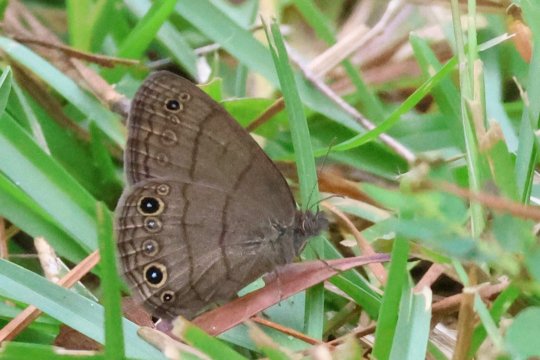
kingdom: Animalia
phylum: Arthropoda
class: Insecta
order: Lepidoptera
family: Nymphalidae
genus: Hermeuptychia
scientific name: Hermeuptychia hermes
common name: Carolina Satyr
